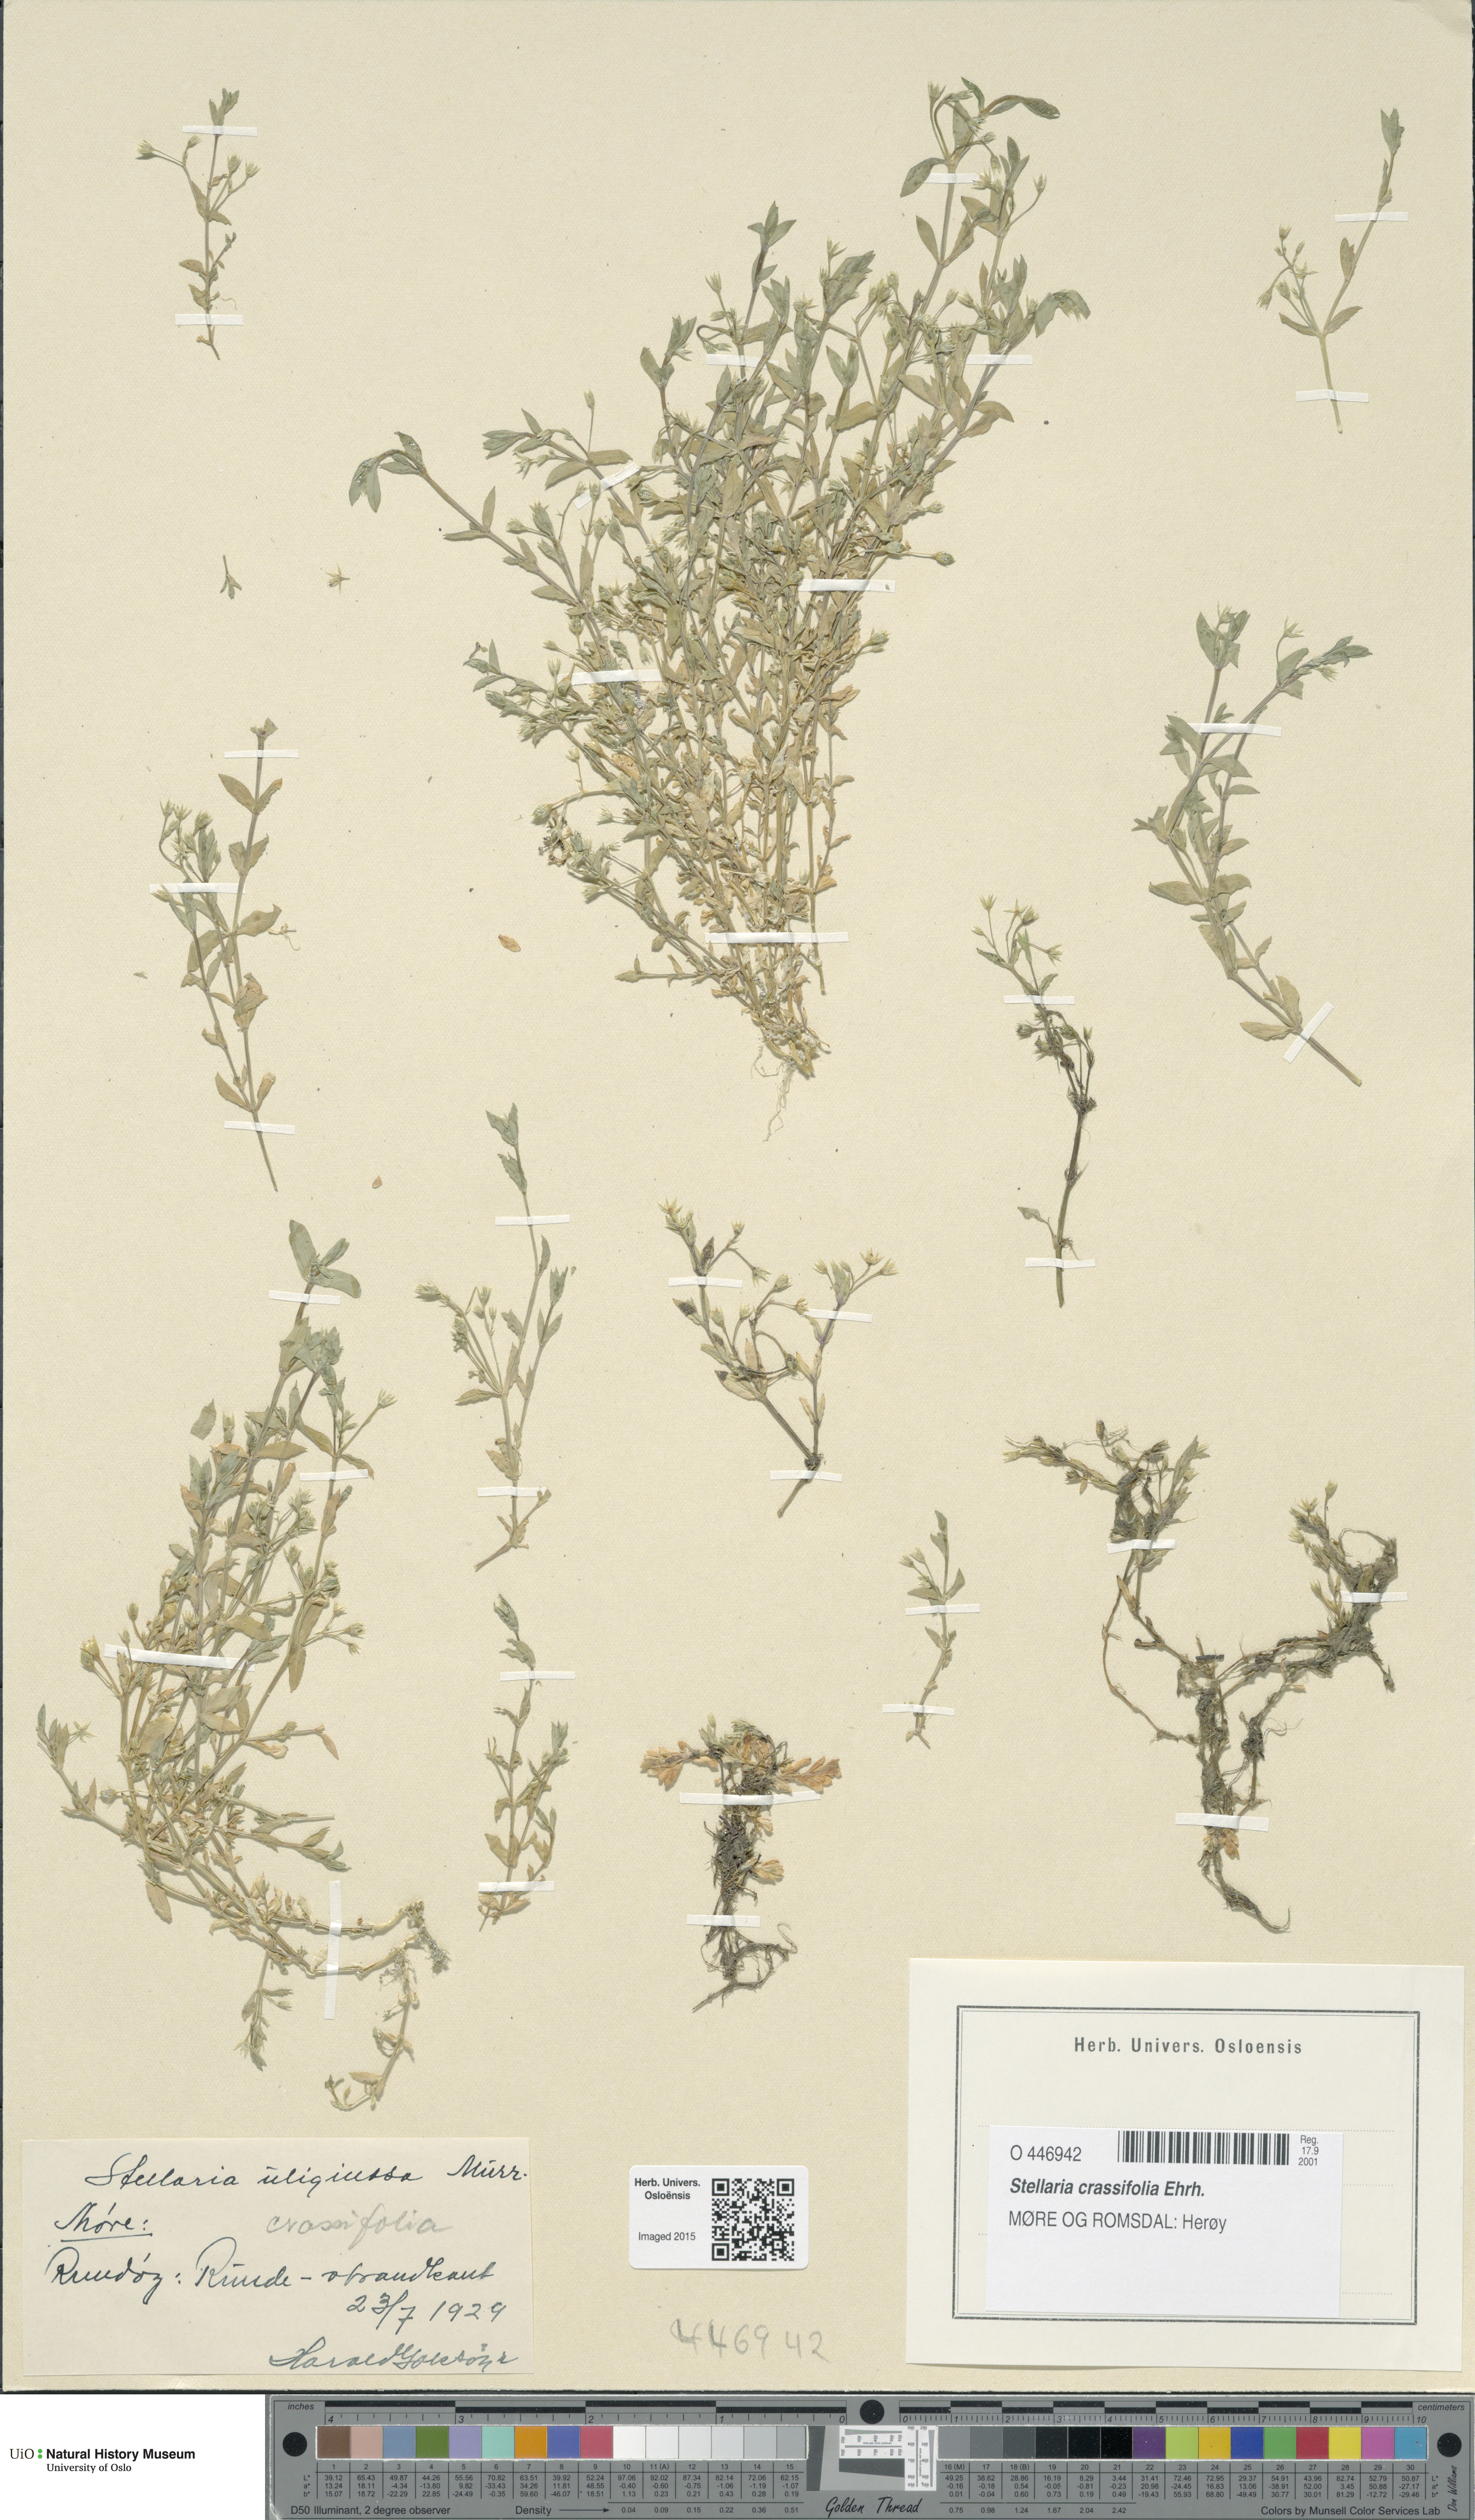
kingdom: Plantae
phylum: Tracheophyta
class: Magnoliopsida
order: Caryophyllales
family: Caryophyllaceae
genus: Stellaria
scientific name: Stellaria crassifolia
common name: Fleshy starwort
